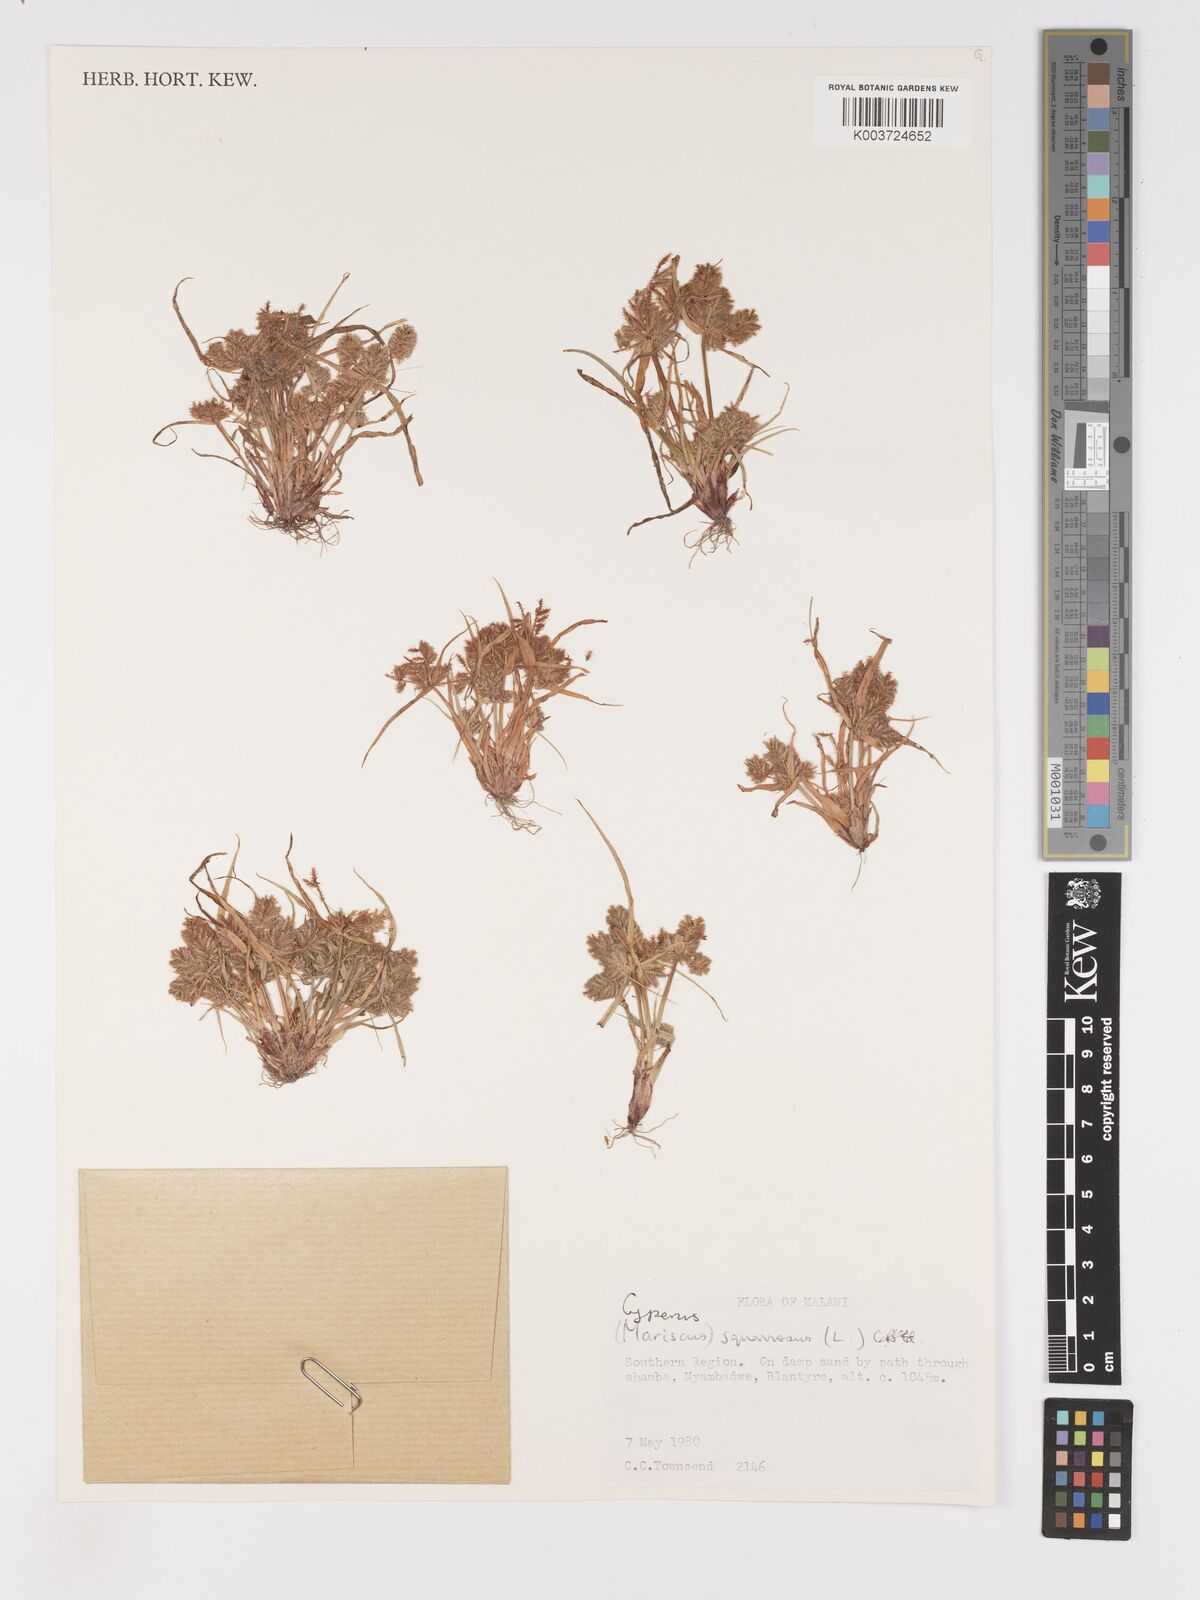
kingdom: Plantae
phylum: Tracheophyta
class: Liliopsida
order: Poales
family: Cyperaceae
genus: Cyperus
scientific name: Cyperus squarrosus
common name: Awned cyperus
